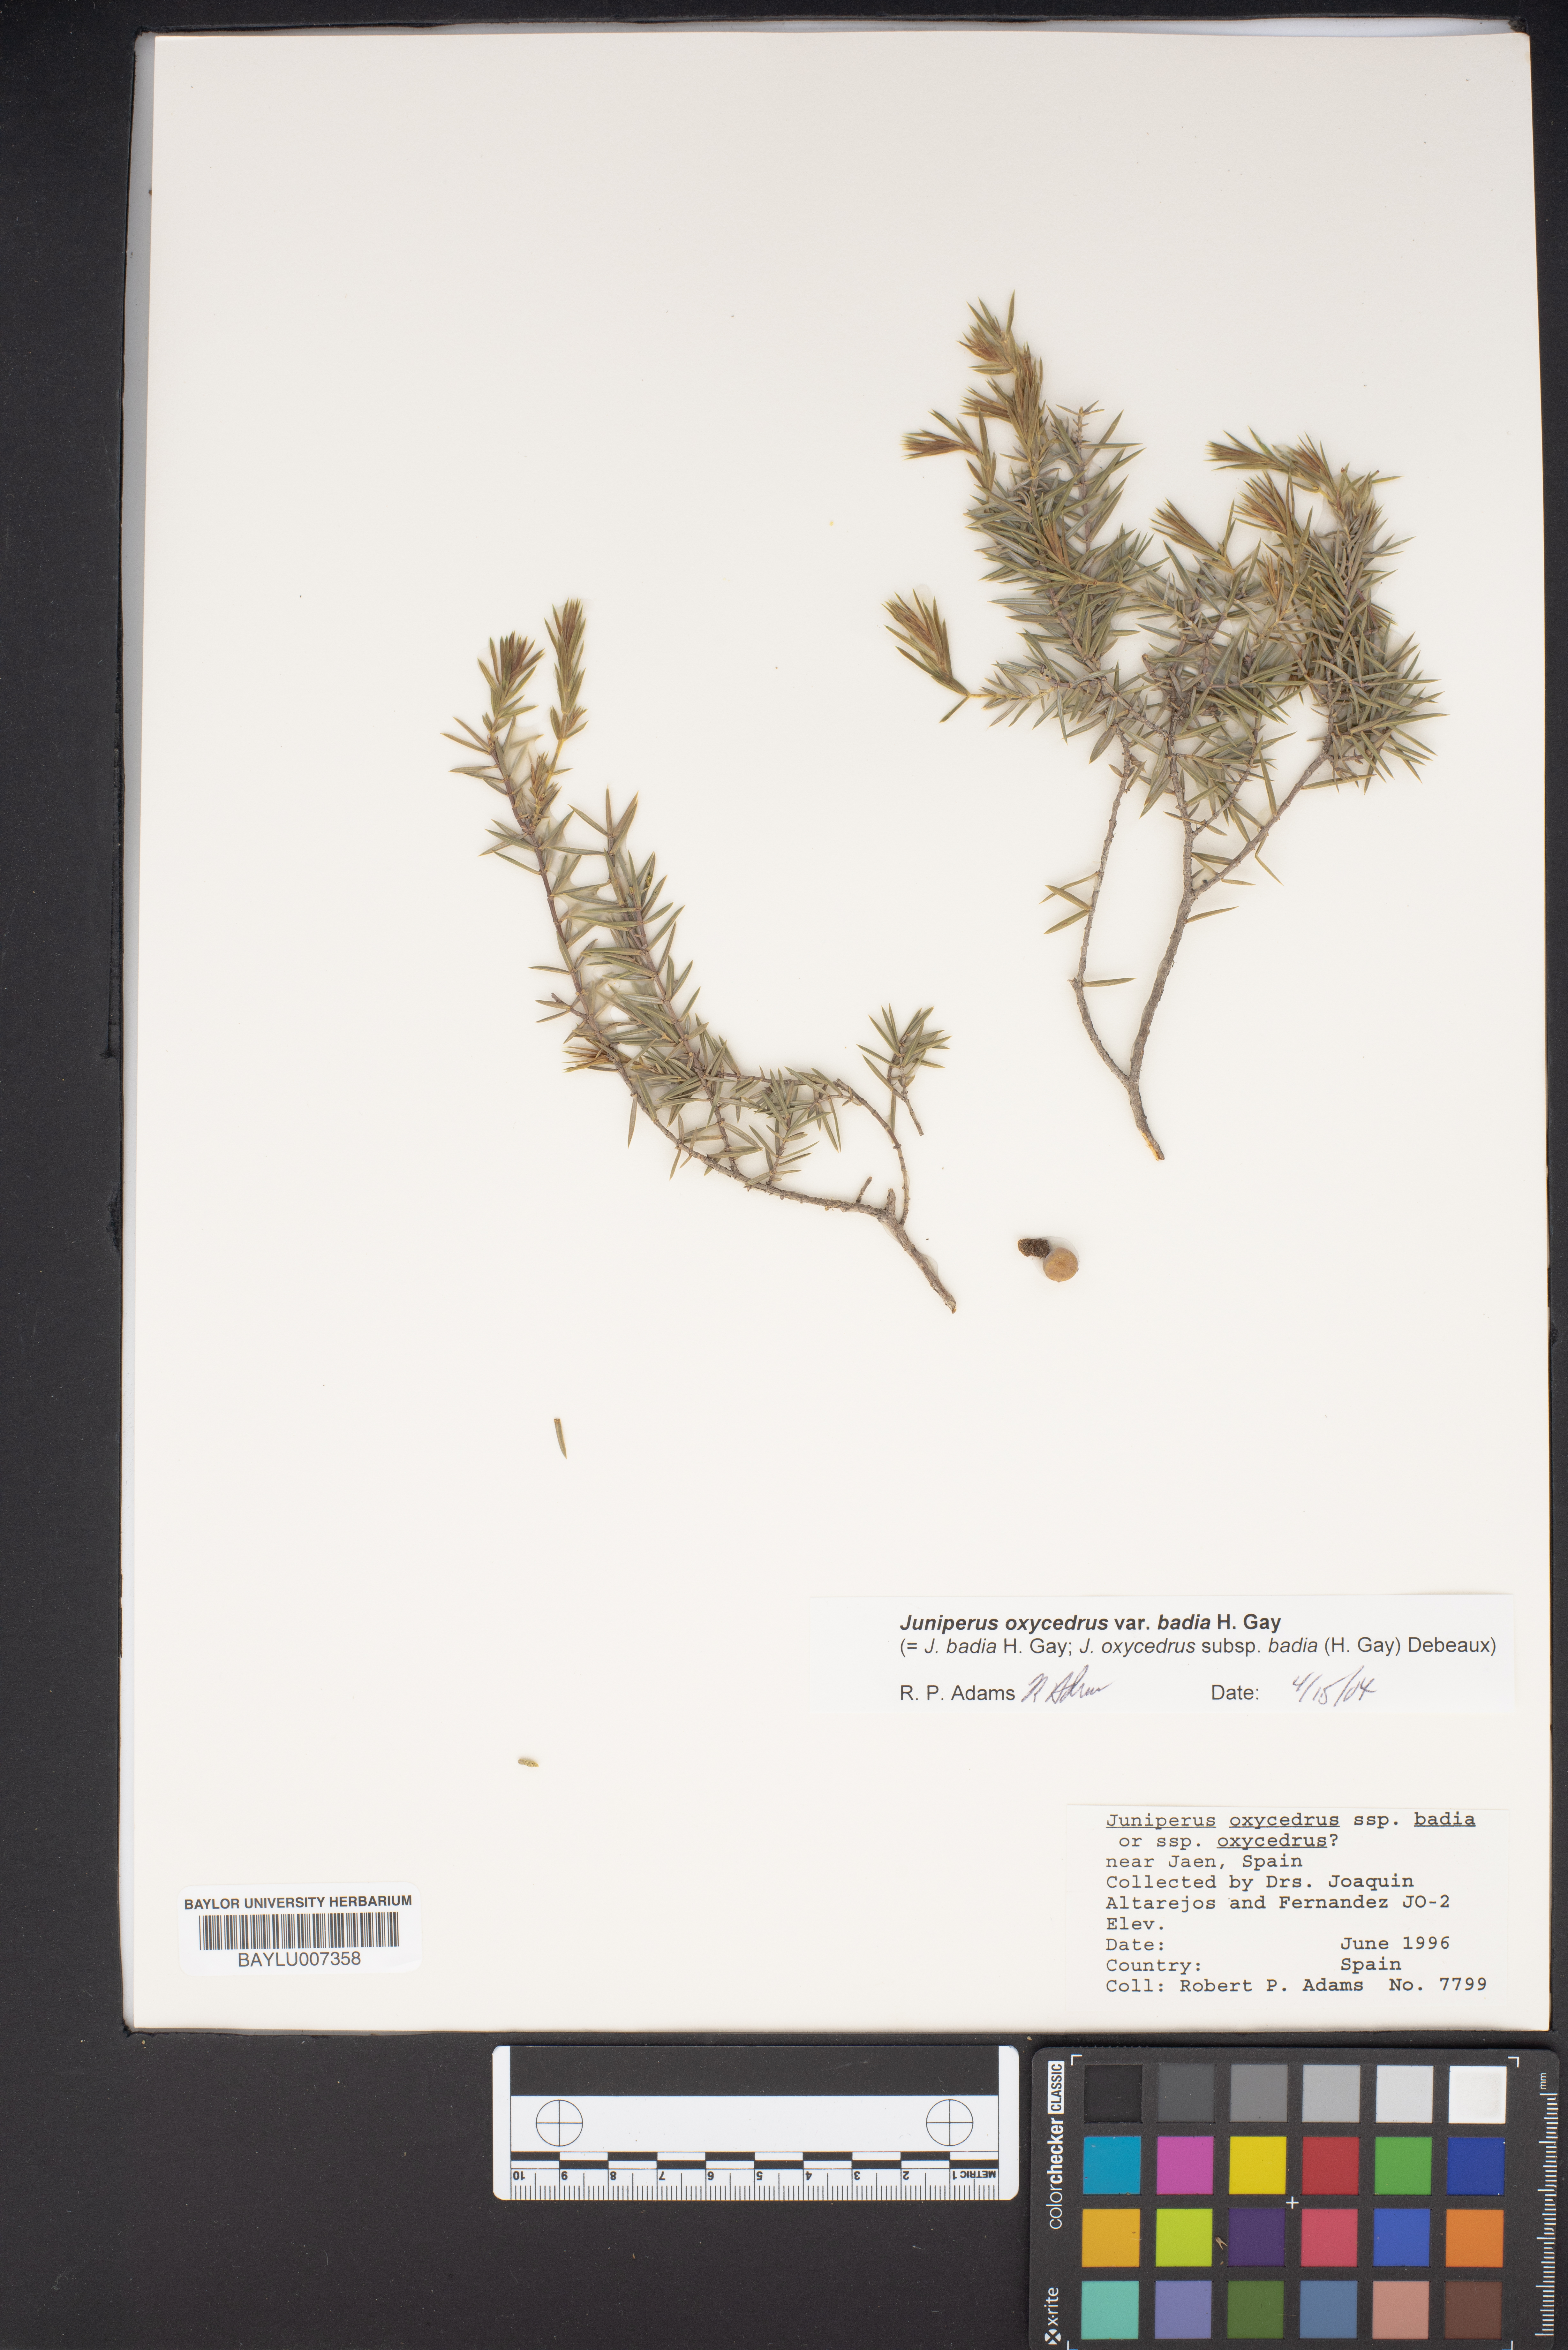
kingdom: Plantae
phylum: Tracheophyta
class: Pinopsida
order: Pinales
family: Cupressaceae
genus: Juniperus
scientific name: Juniperus oxycedrus
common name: Prickly juniper
